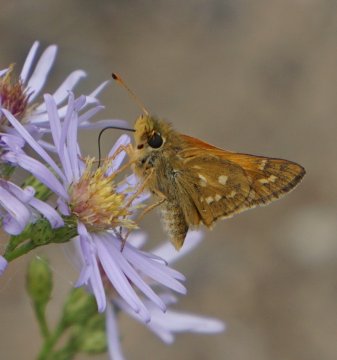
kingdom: Animalia
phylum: Arthropoda
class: Insecta
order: Lepidoptera
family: Hesperiidae
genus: Hesperia
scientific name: Hesperia comma
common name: Common Branded Skipper
